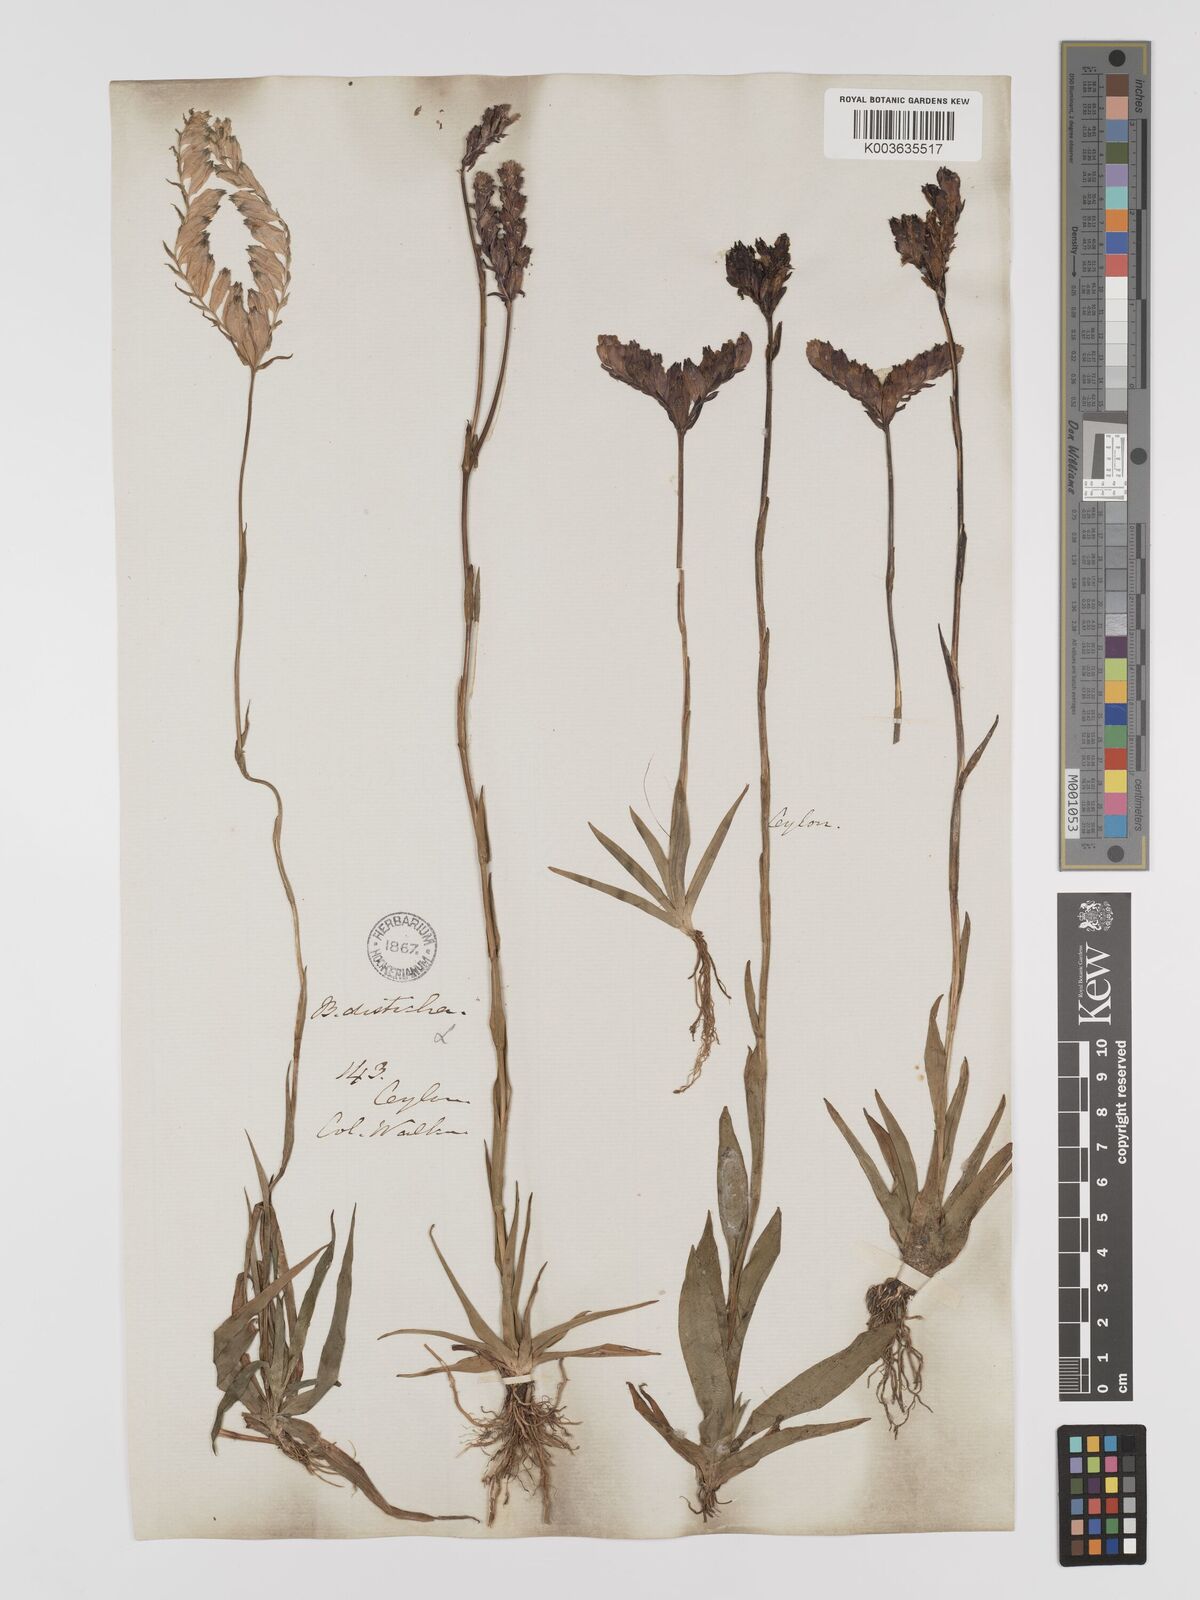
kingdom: Plantae
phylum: Tracheophyta
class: Liliopsida
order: Dioscoreales
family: Burmanniaceae
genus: Burmannia
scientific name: Burmannia disticha
